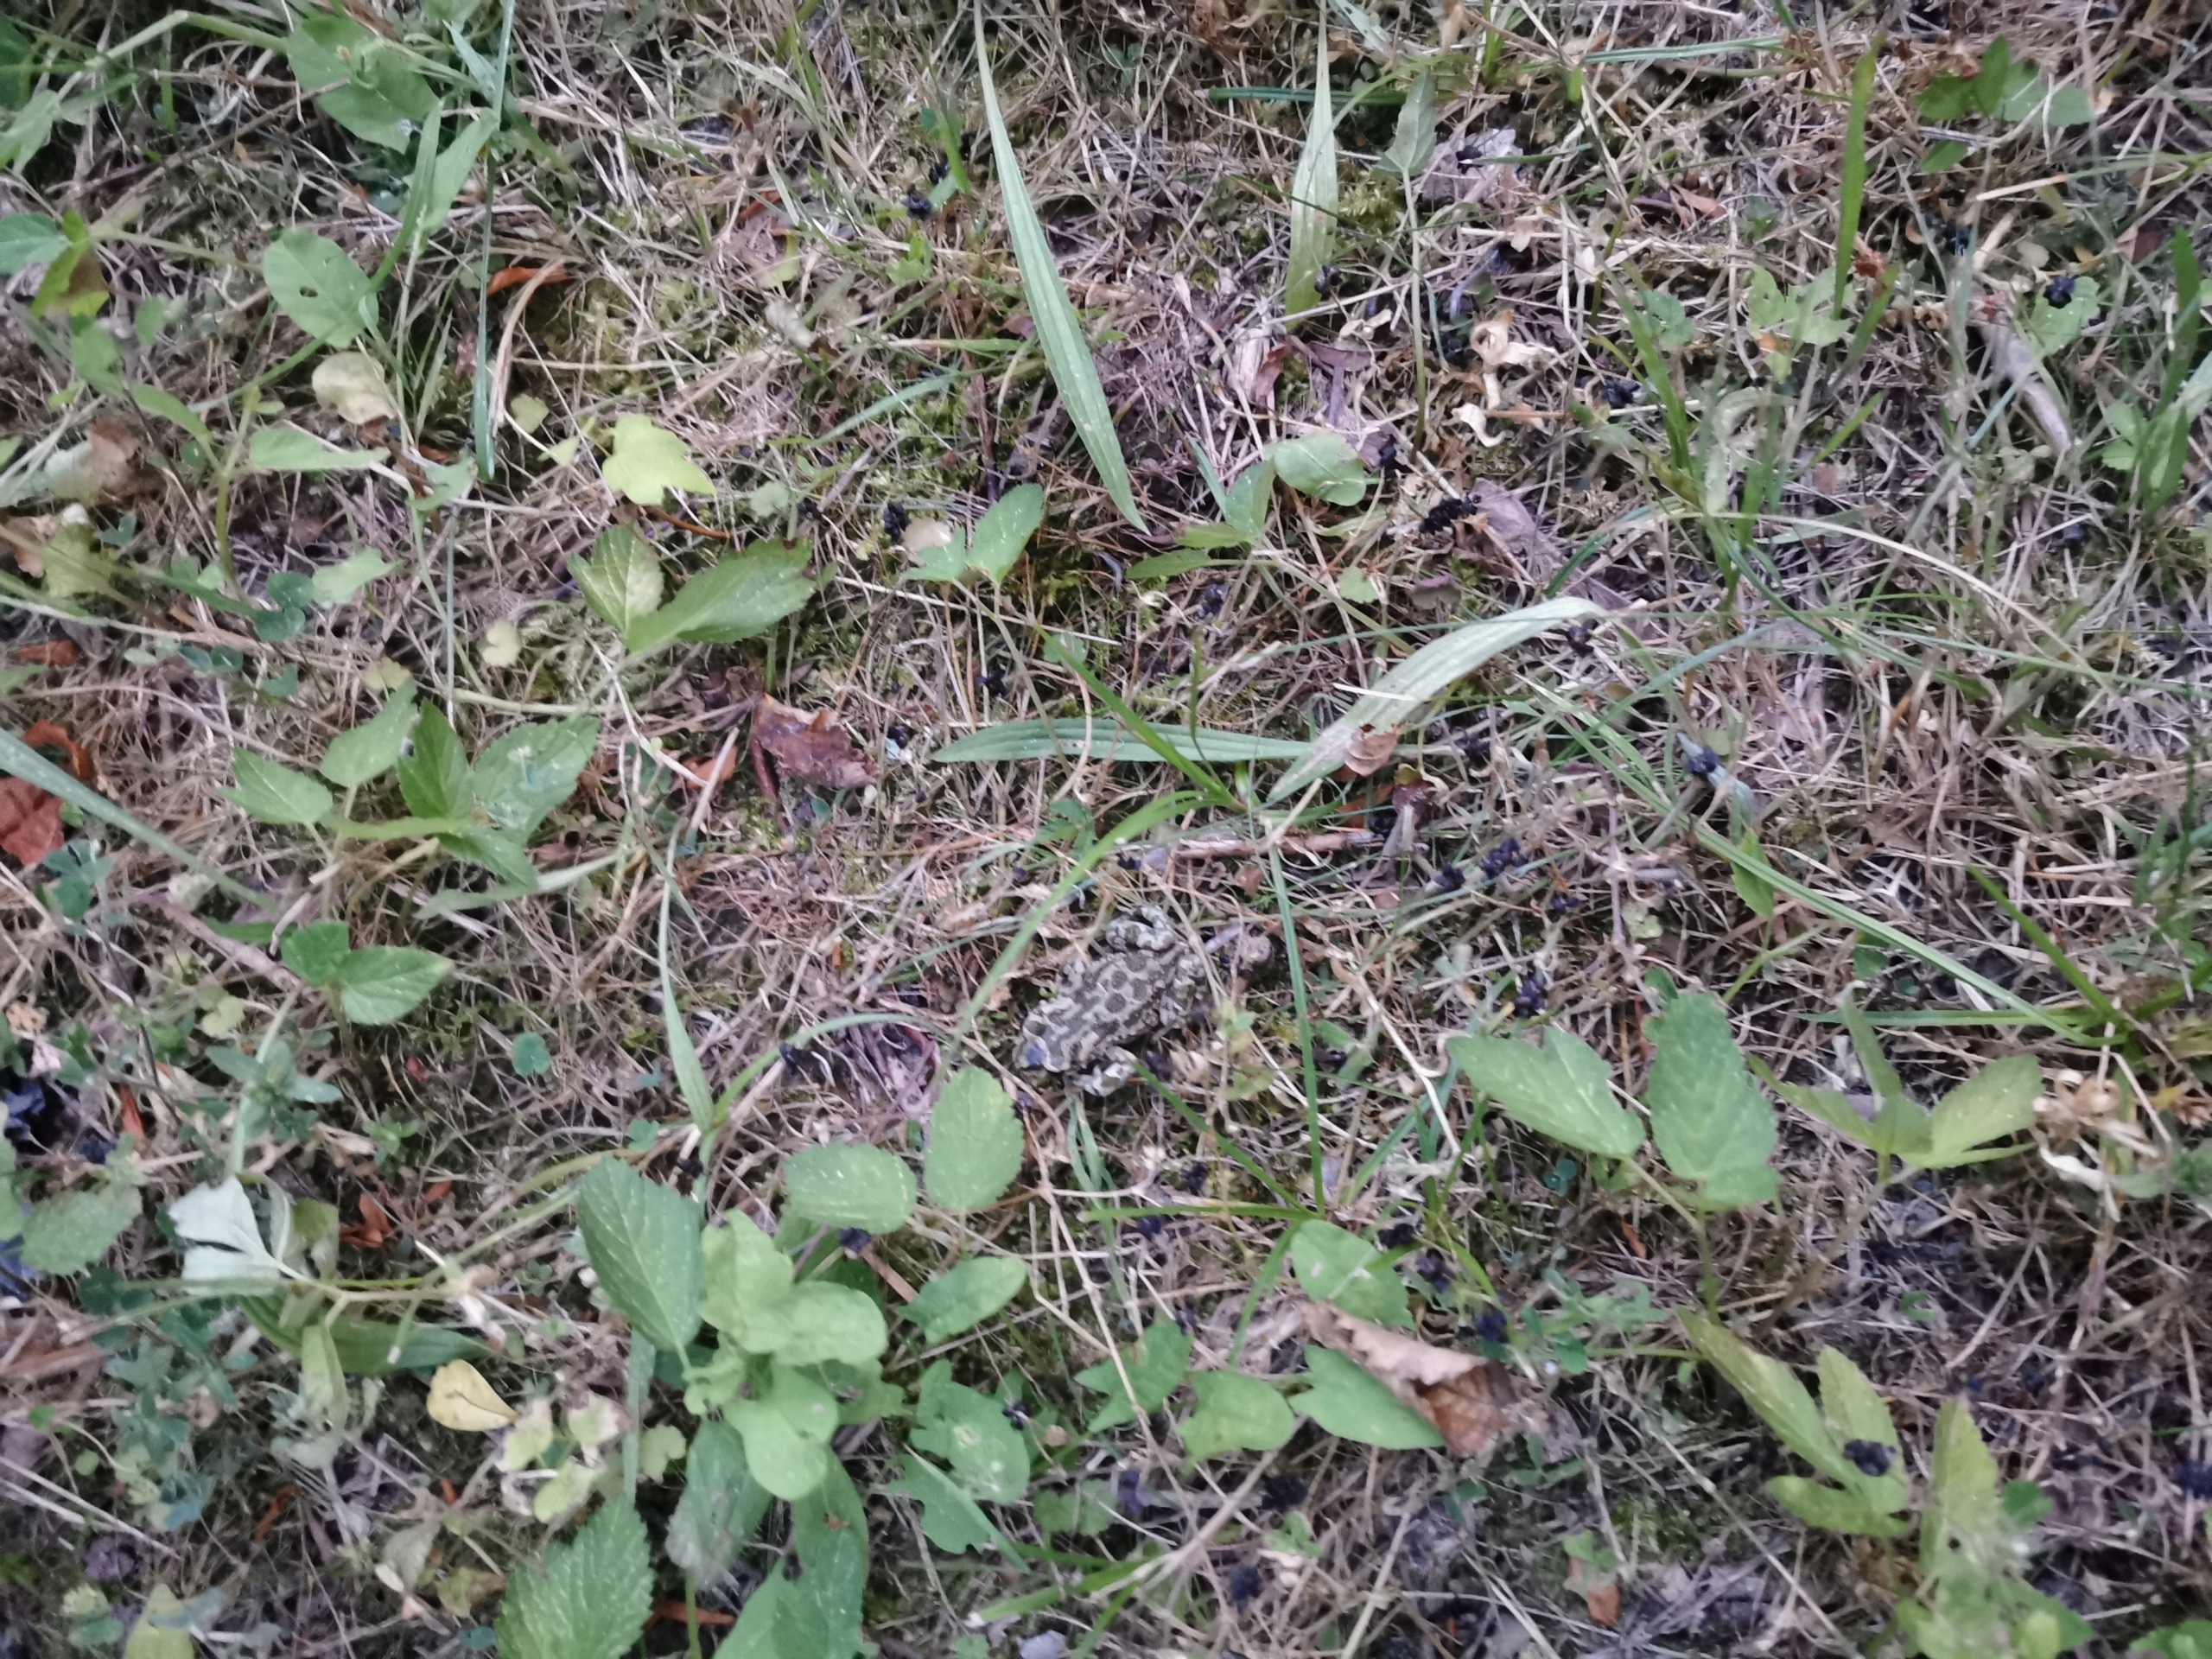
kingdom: Animalia
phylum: Chordata
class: Amphibia
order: Anura
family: Bufonidae
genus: Bufotes
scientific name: Bufotes viridis
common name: Grønbroget tudse
